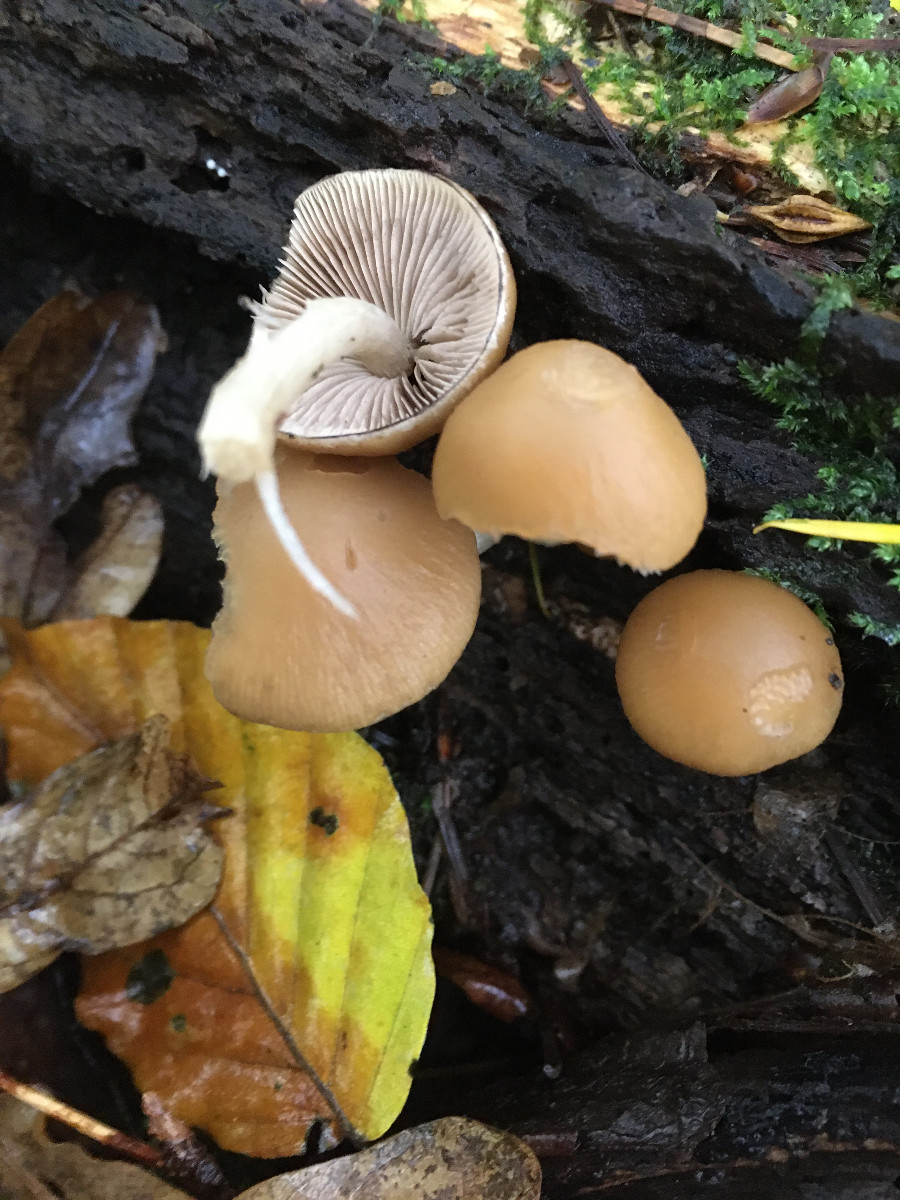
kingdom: Fungi
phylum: Basidiomycota
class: Agaricomycetes
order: Agaricales
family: Psathyrellaceae
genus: Psathyrella
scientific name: Psathyrella piluliformis
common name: lysstokket mørkhat
